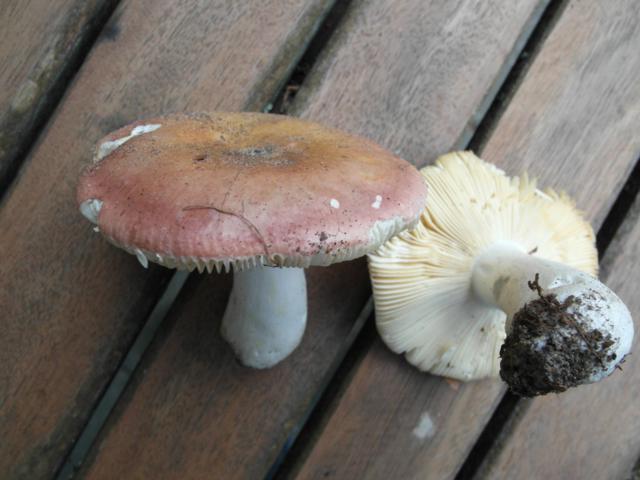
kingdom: Fungi
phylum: Basidiomycota
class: Agaricomycetes
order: Russulales
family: Russulaceae
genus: Russula
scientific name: Russula veternosa
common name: blødkødet skørhat
